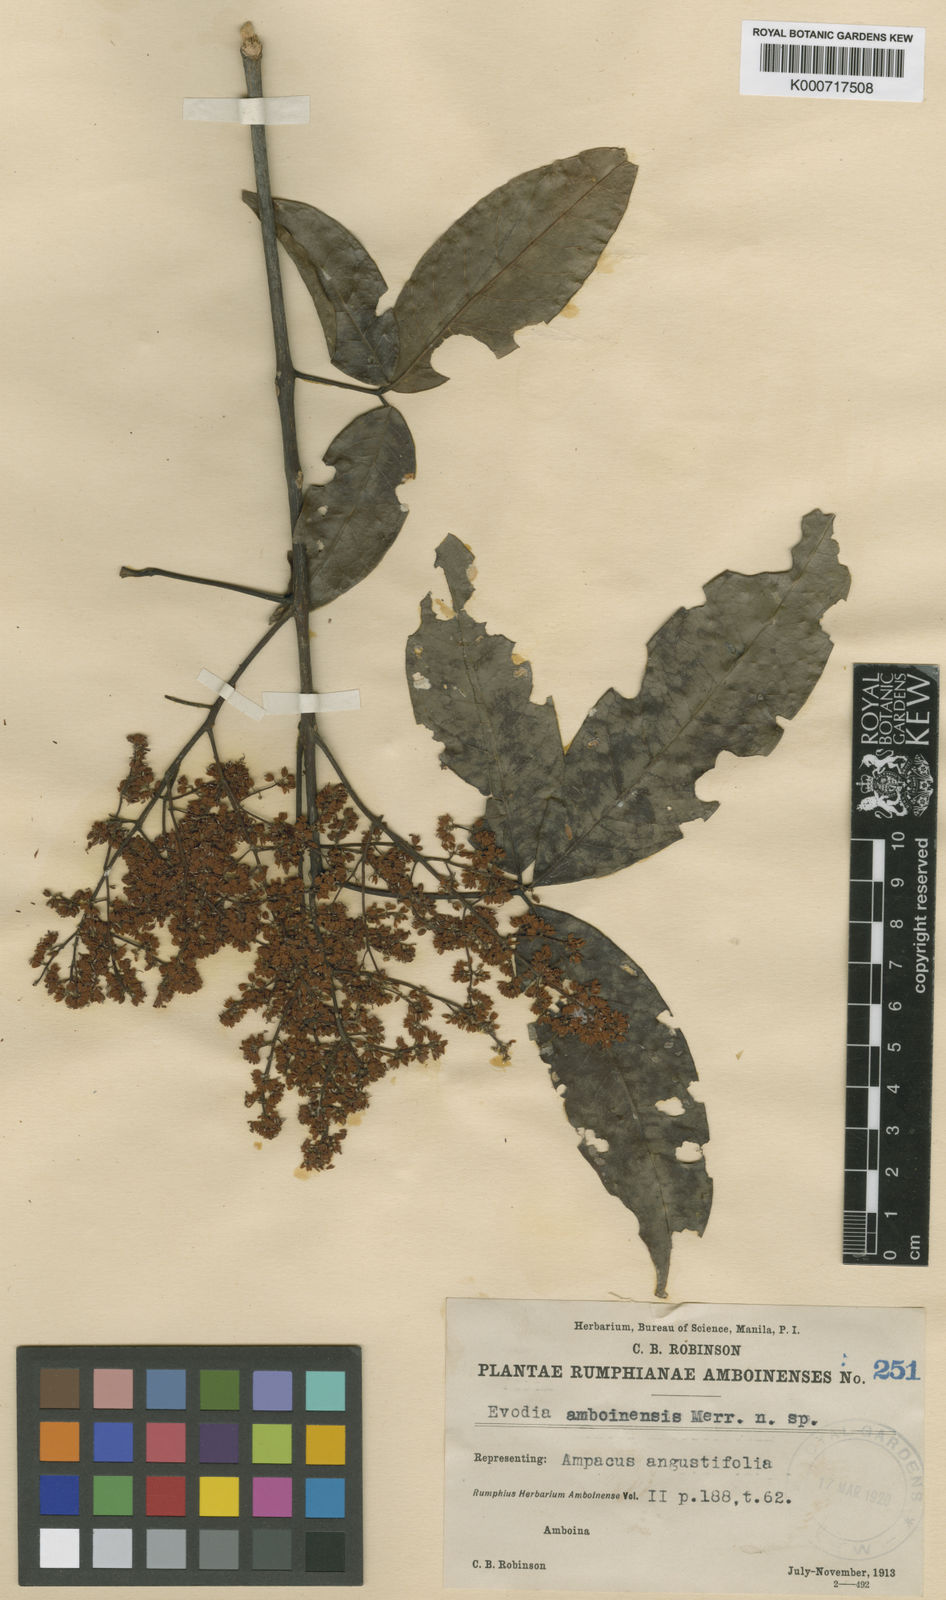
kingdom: Plantae
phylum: Tracheophyta
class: Magnoliopsida
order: Sapindales
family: Rutaceae
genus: Melicope
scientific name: Melicope denhamii
